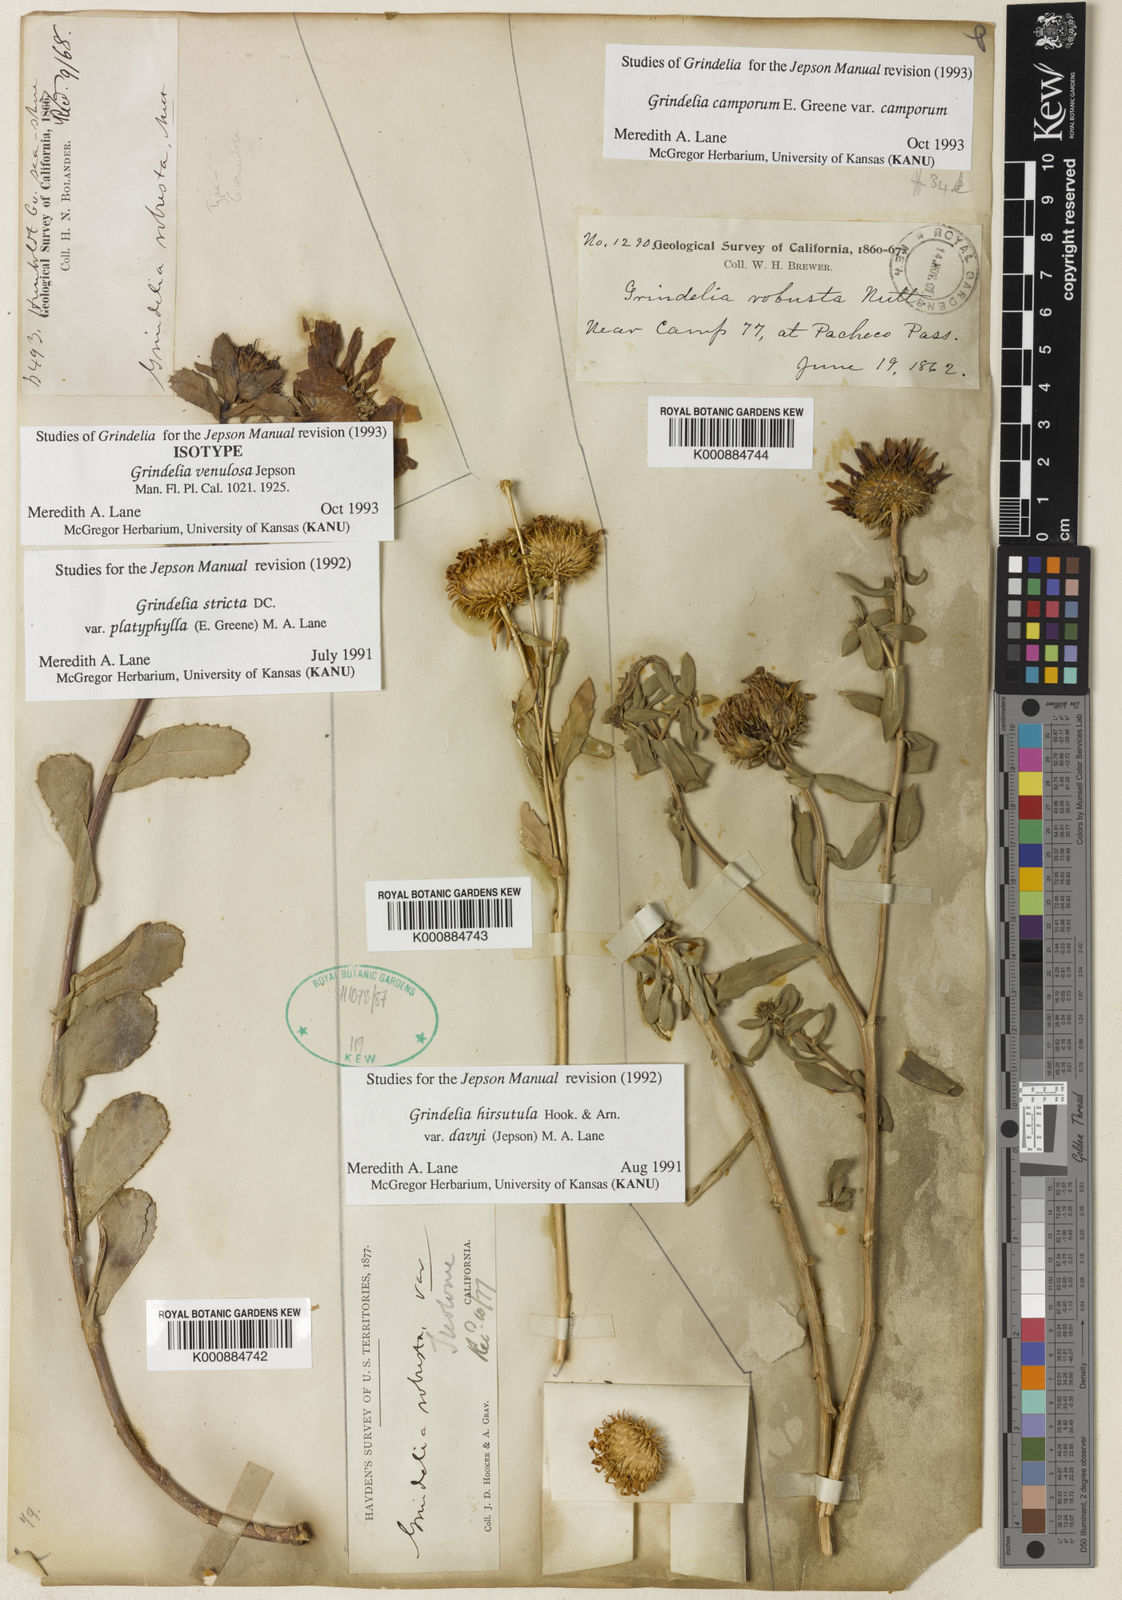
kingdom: Plantae
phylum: Tracheophyta
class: Magnoliopsida
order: Asterales
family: Asteraceae
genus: Grindelia
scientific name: Grindelia hirsutula
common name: Hairy gumweed
